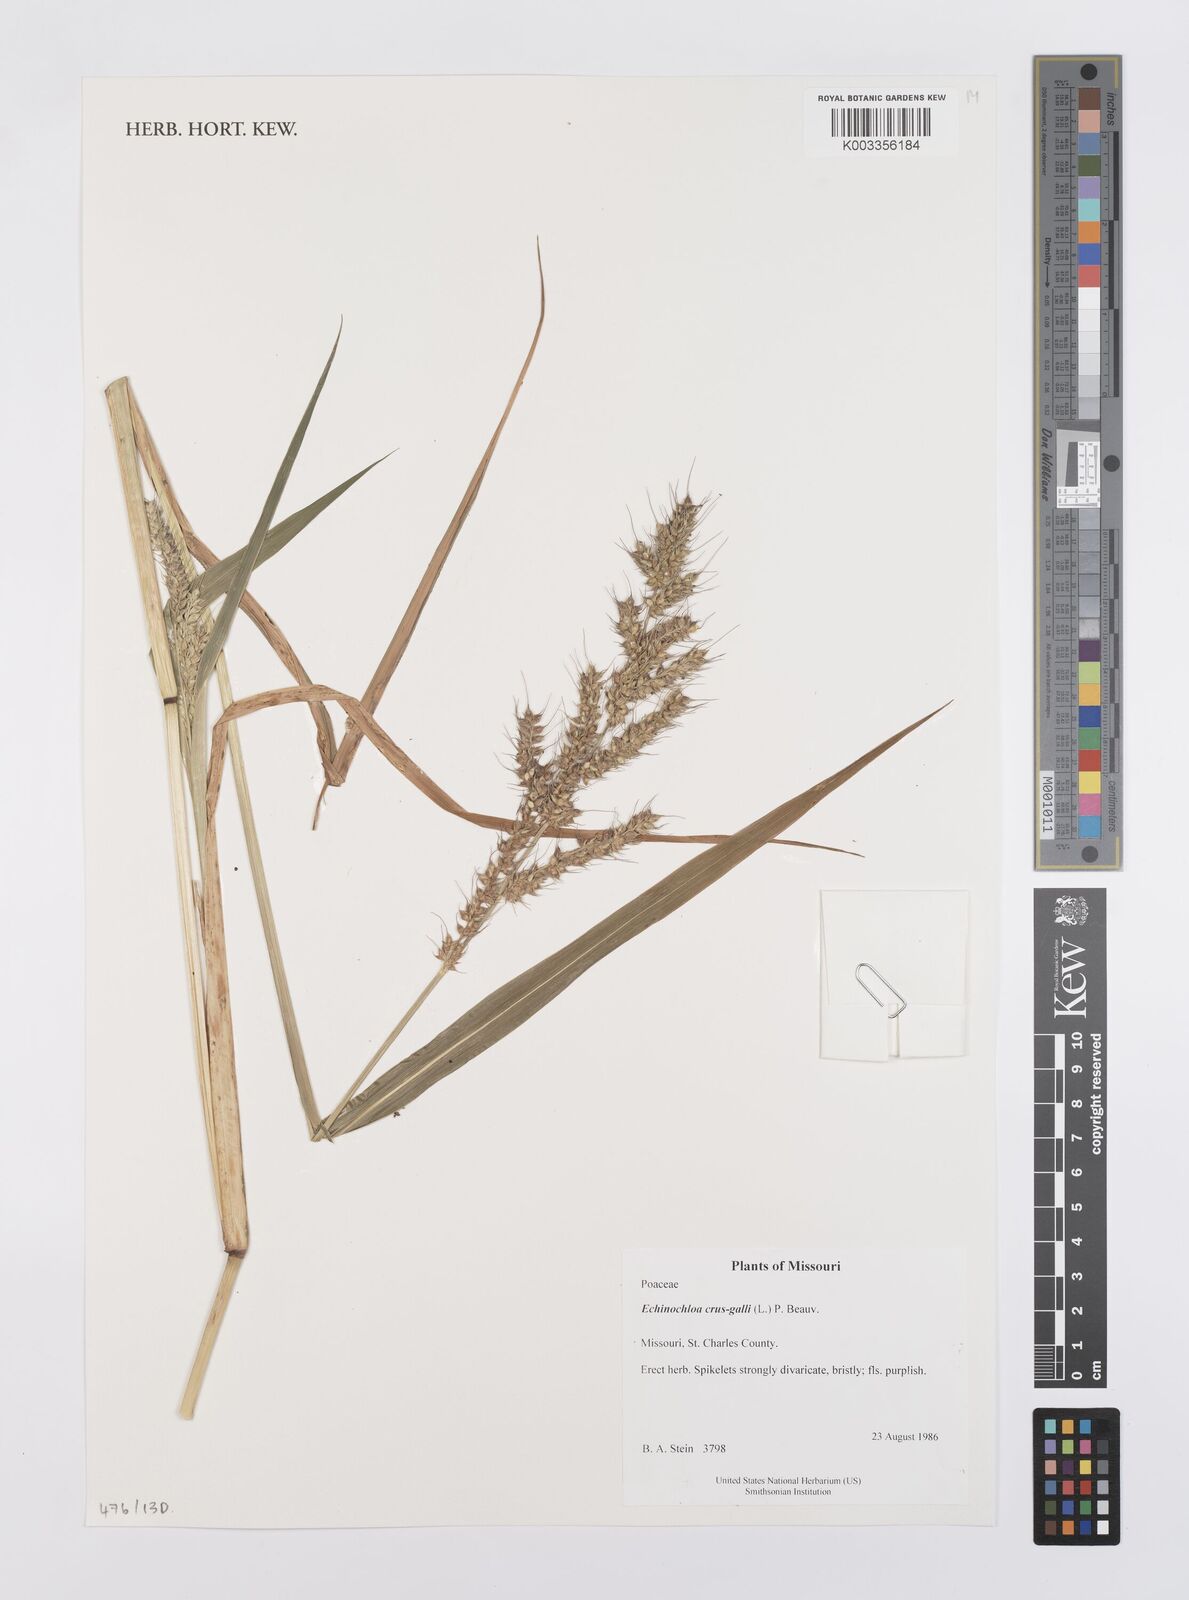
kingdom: Plantae
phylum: Tracheophyta
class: Liliopsida
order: Poales
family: Poaceae
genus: Echinochloa
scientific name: Echinochloa crus-galli
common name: Cockspur
